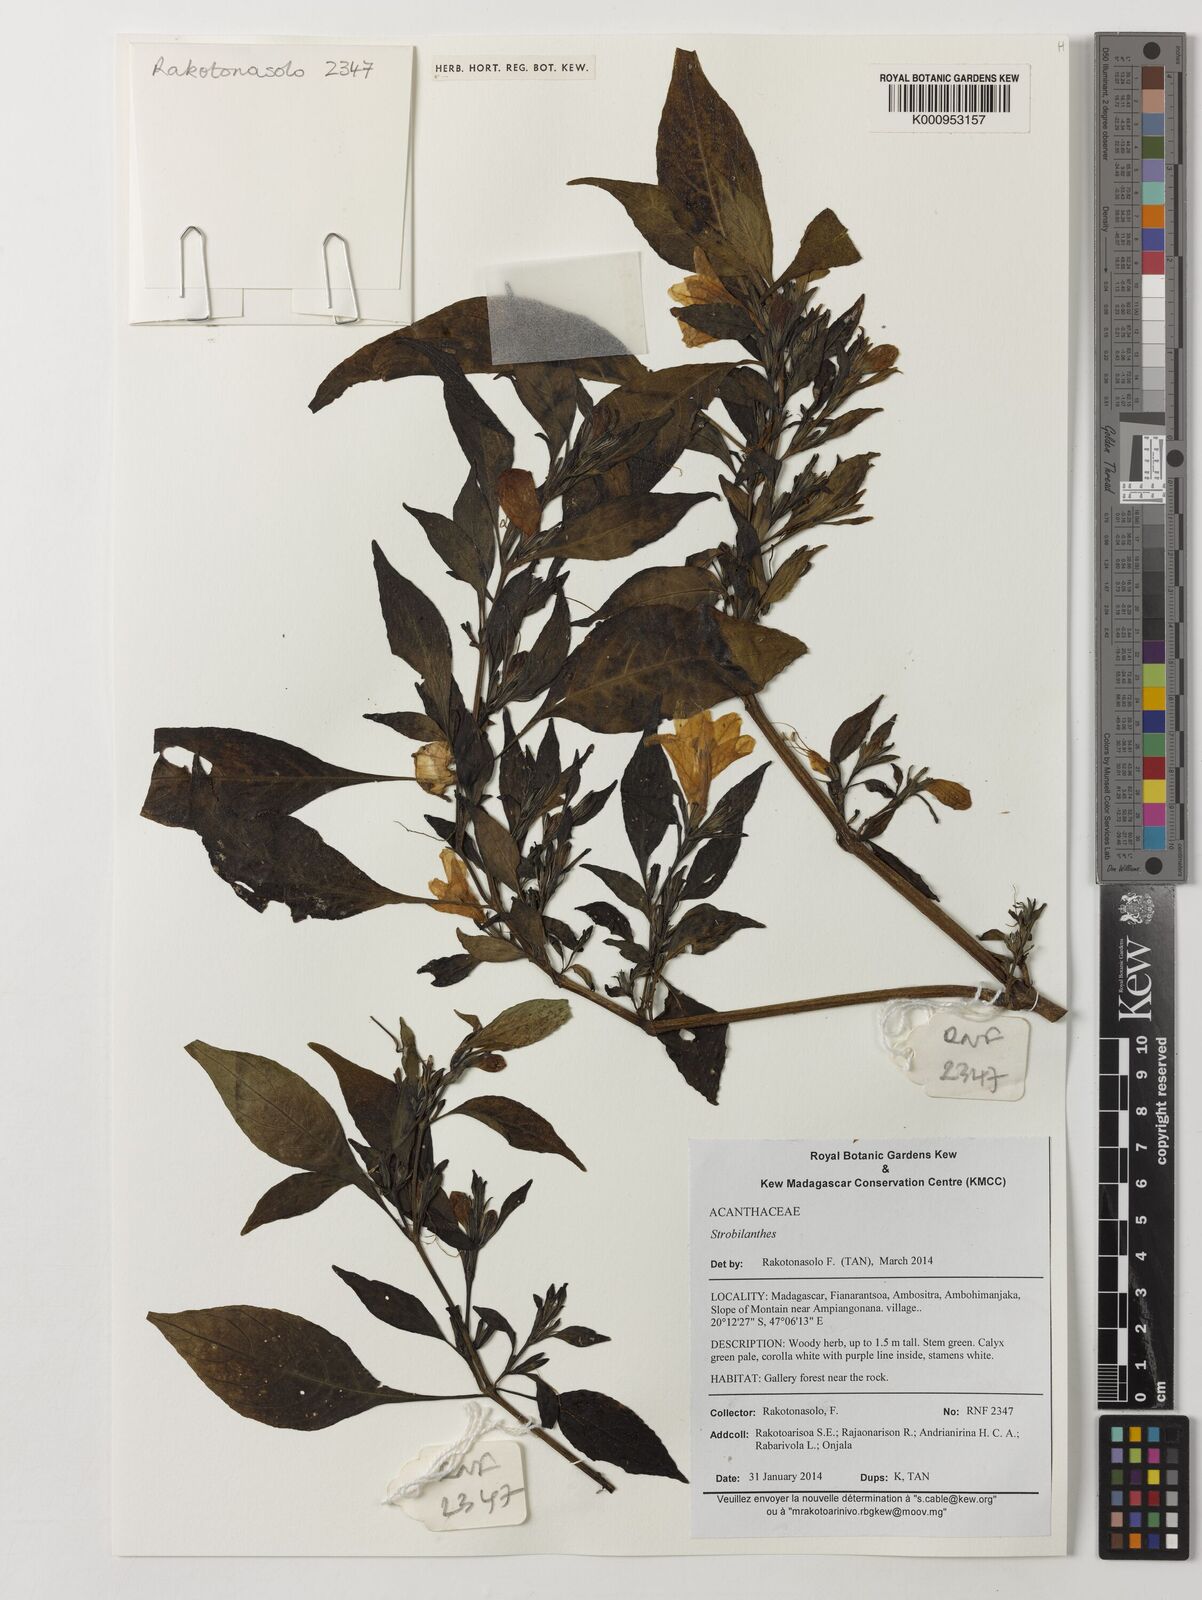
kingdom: Plantae
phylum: Tracheophyta
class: Magnoliopsida
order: Lamiales
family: Acanthaceae
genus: Acanthopale
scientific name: Acanthopale
